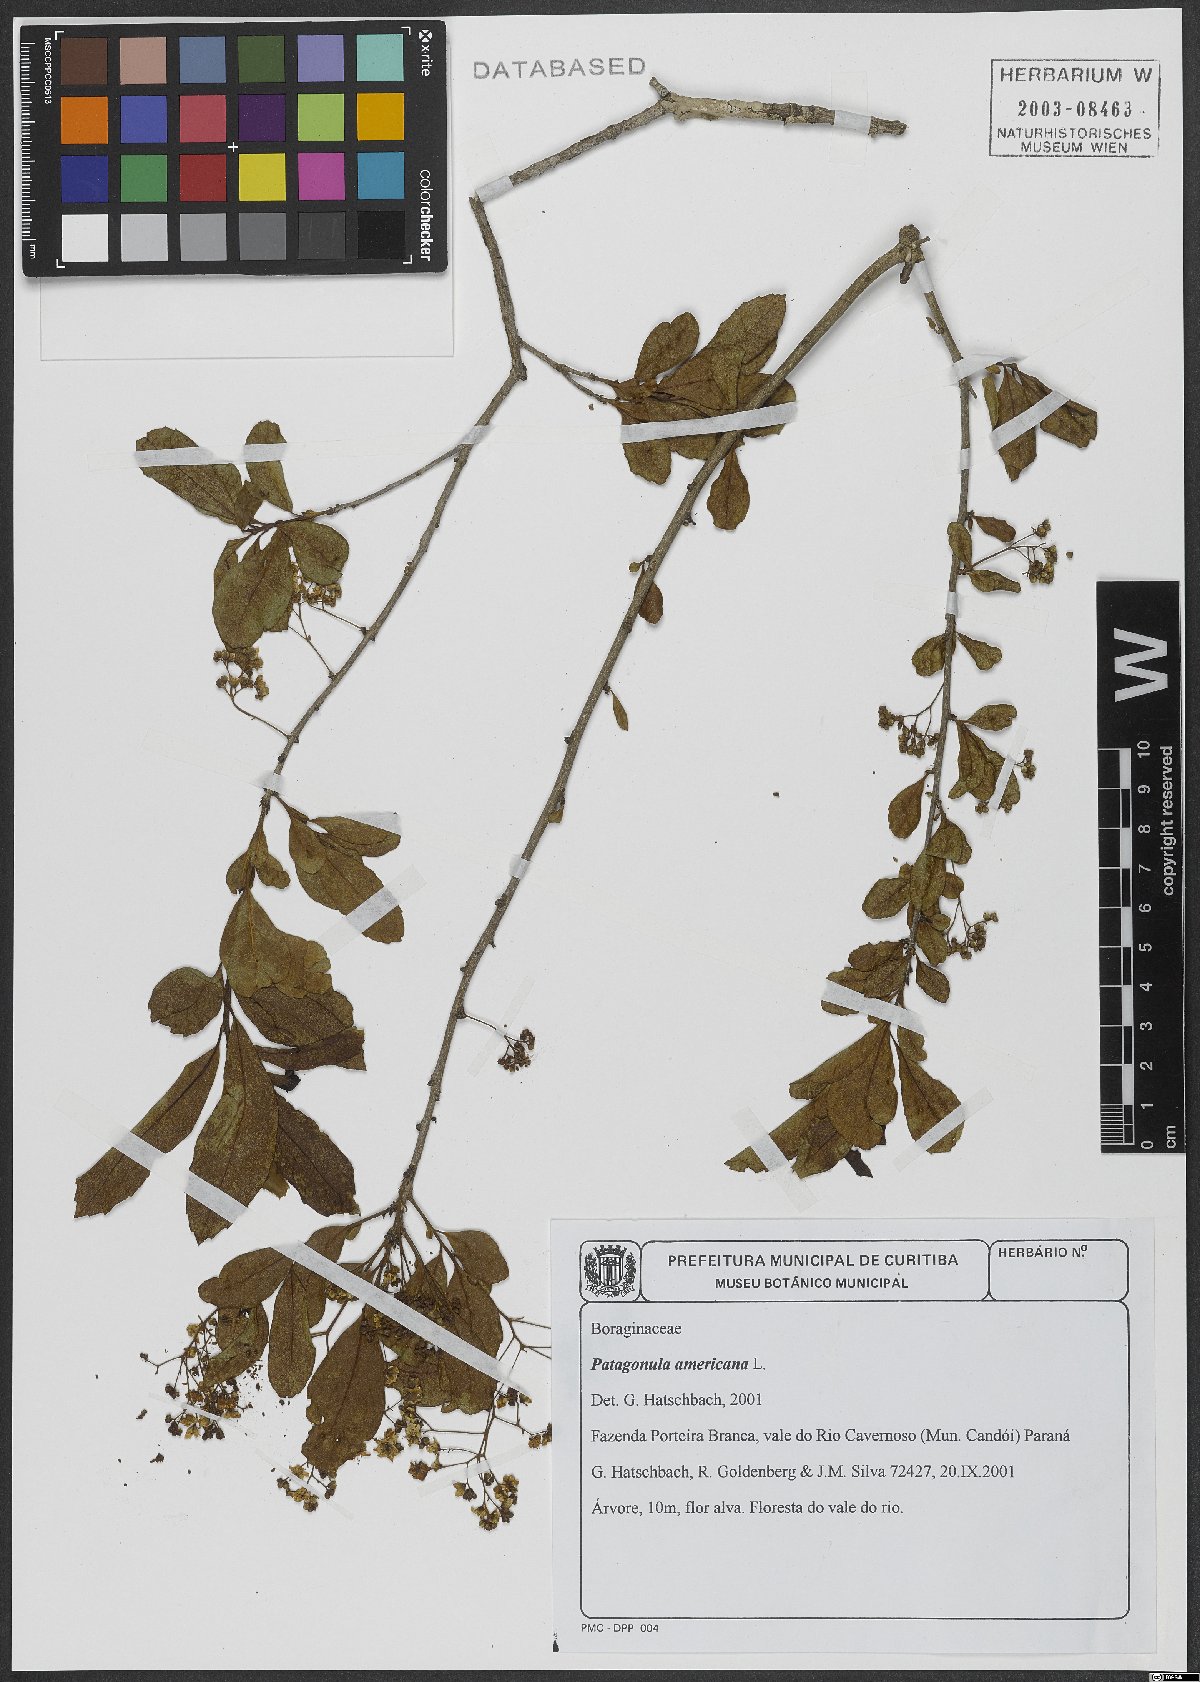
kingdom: Plantae
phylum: Tracheophyta
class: Magnoliopsida
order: Boraginales
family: Cordiaceae
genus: Cordia
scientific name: Cordia americana
